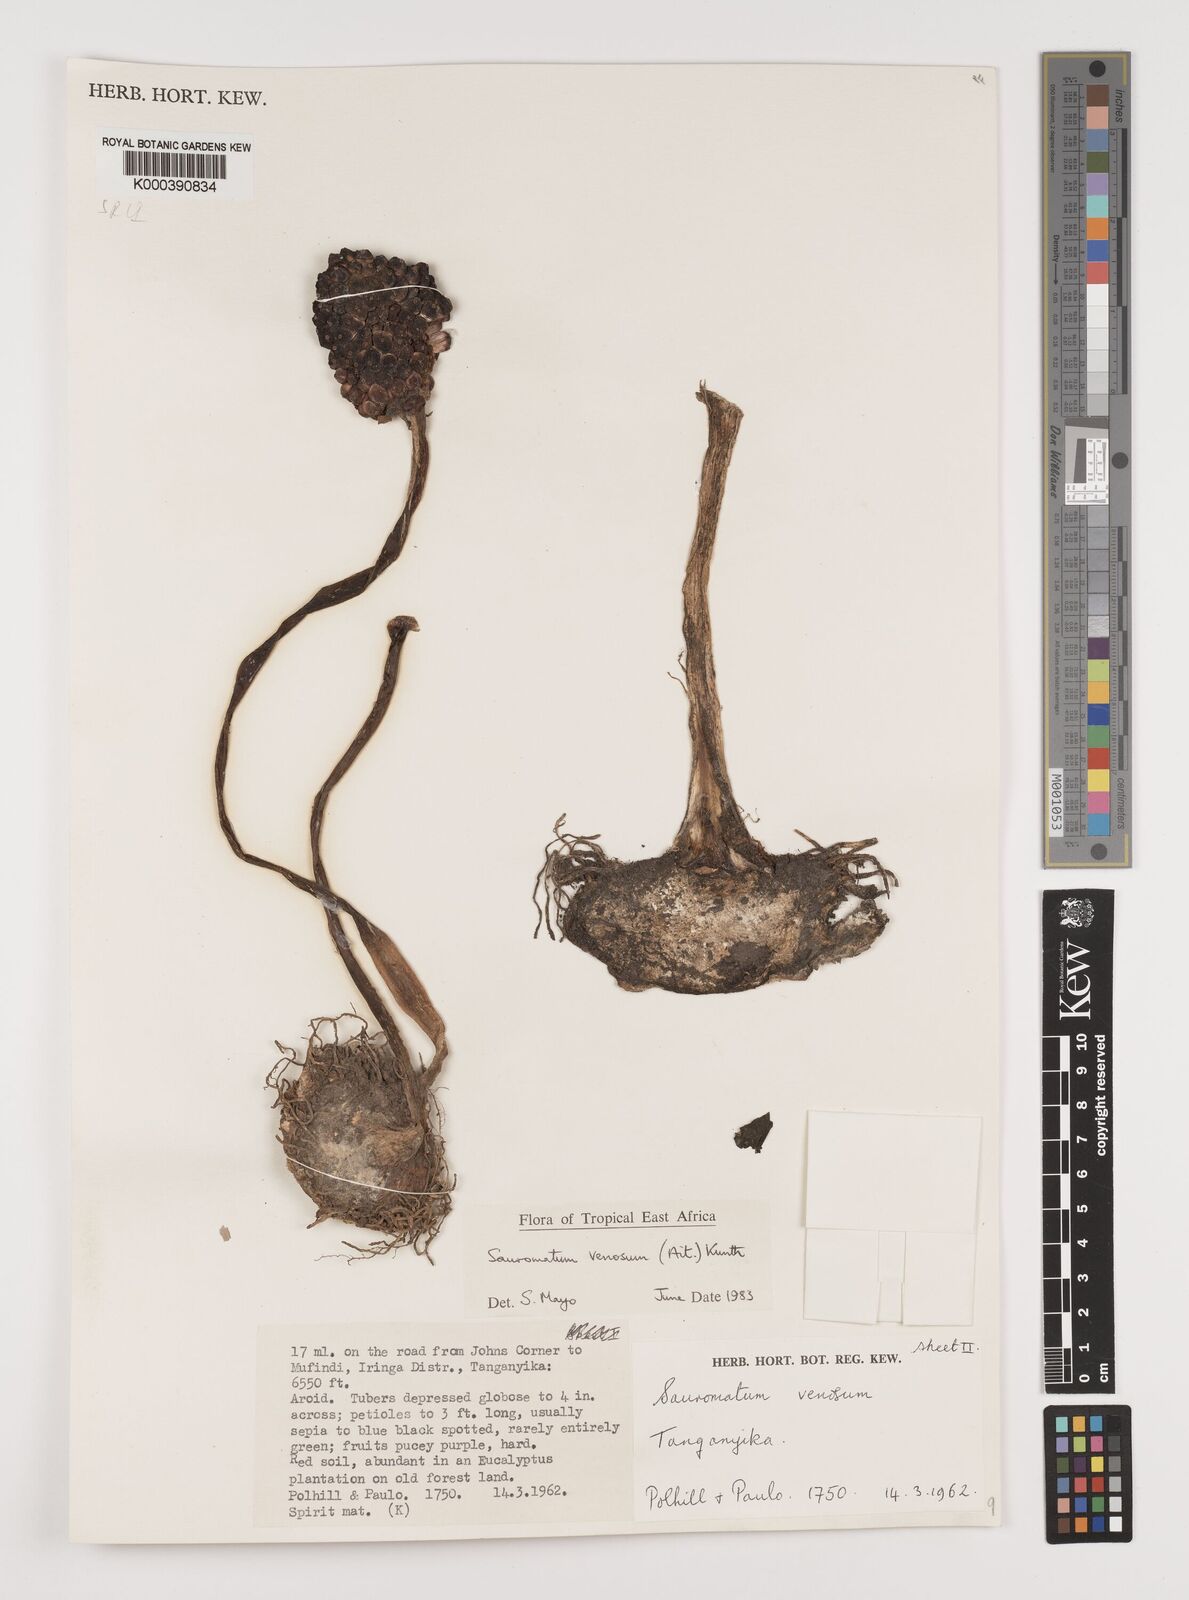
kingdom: Plantae
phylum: Tracheophyta
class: Liliopsida
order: Alismatales
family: Araceae
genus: Sauromatum
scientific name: Sauromatum venosum
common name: Voodoo lily
